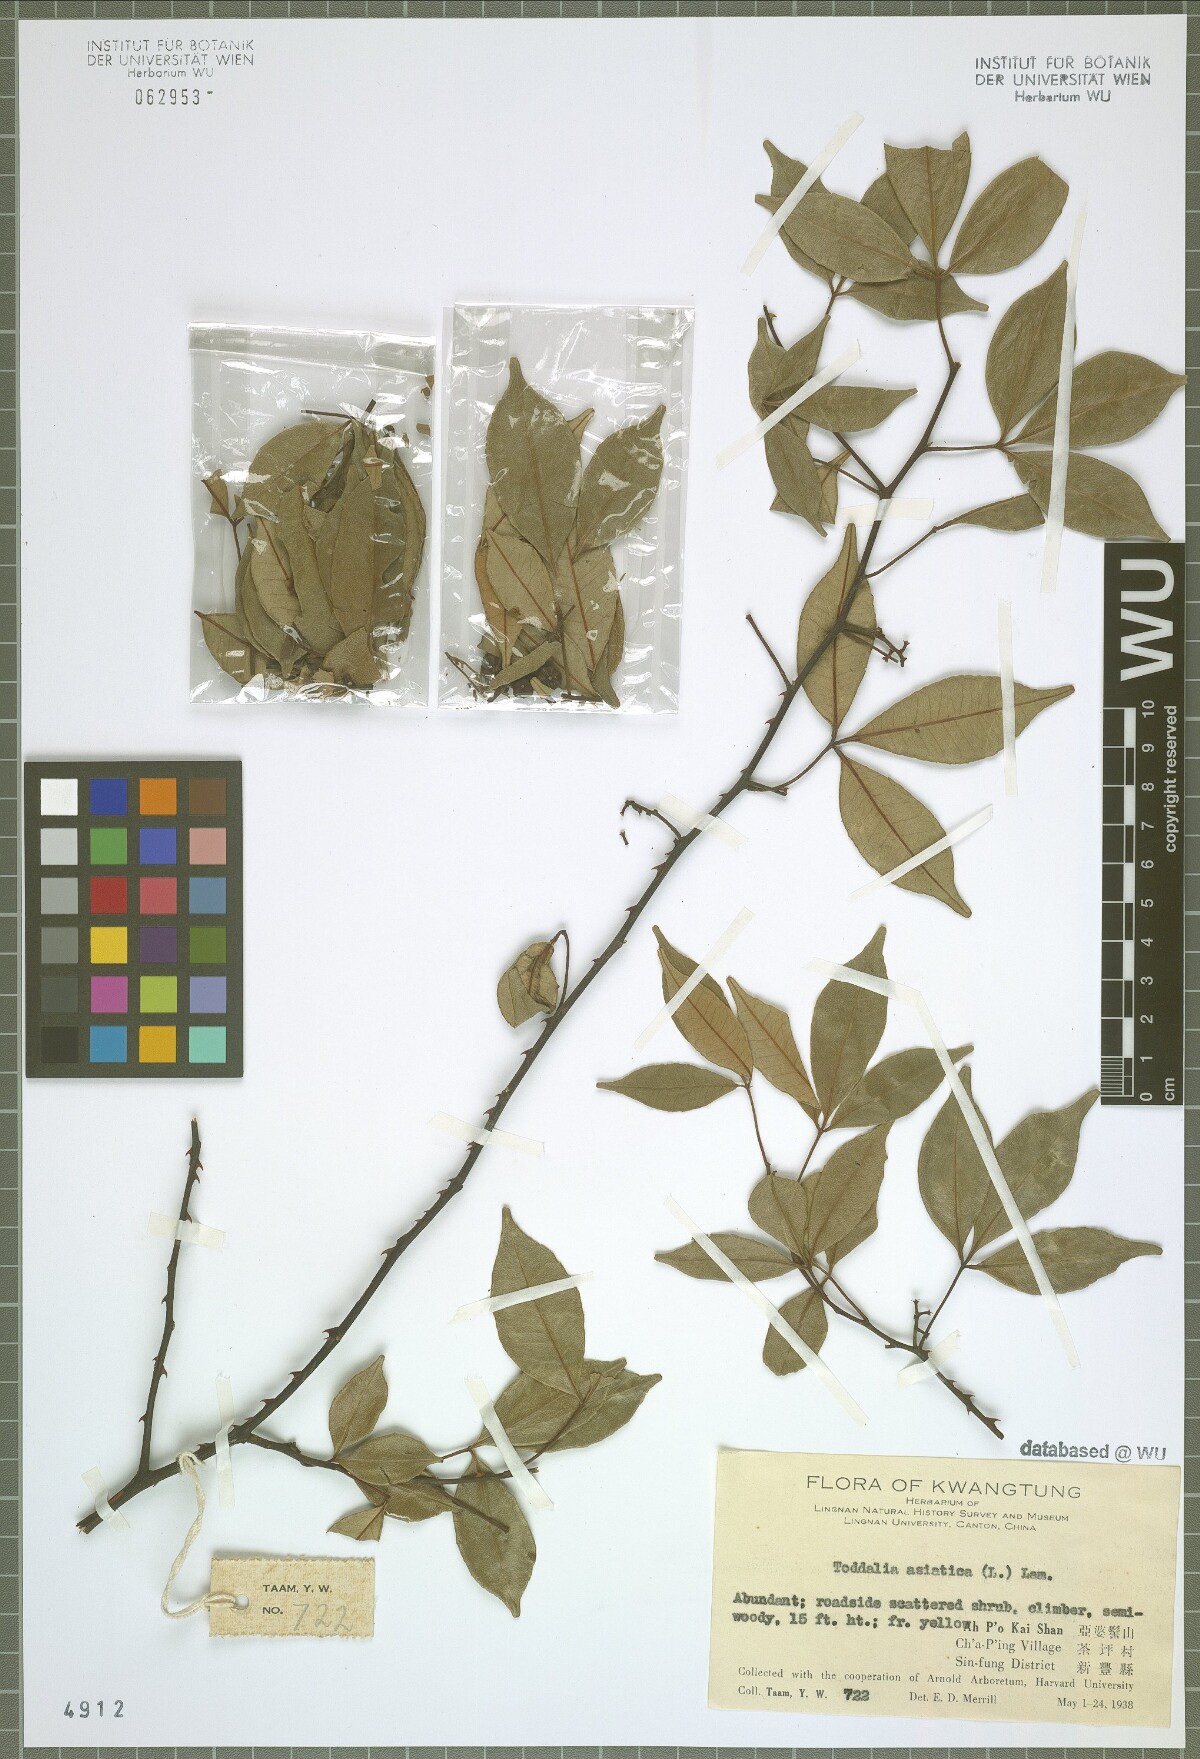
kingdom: Plantae
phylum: Tracheophyta
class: Magnoliopsida
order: Sapindales
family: Rutaceae
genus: Zanthoxylum
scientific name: Zanthoxylum asiaticum
